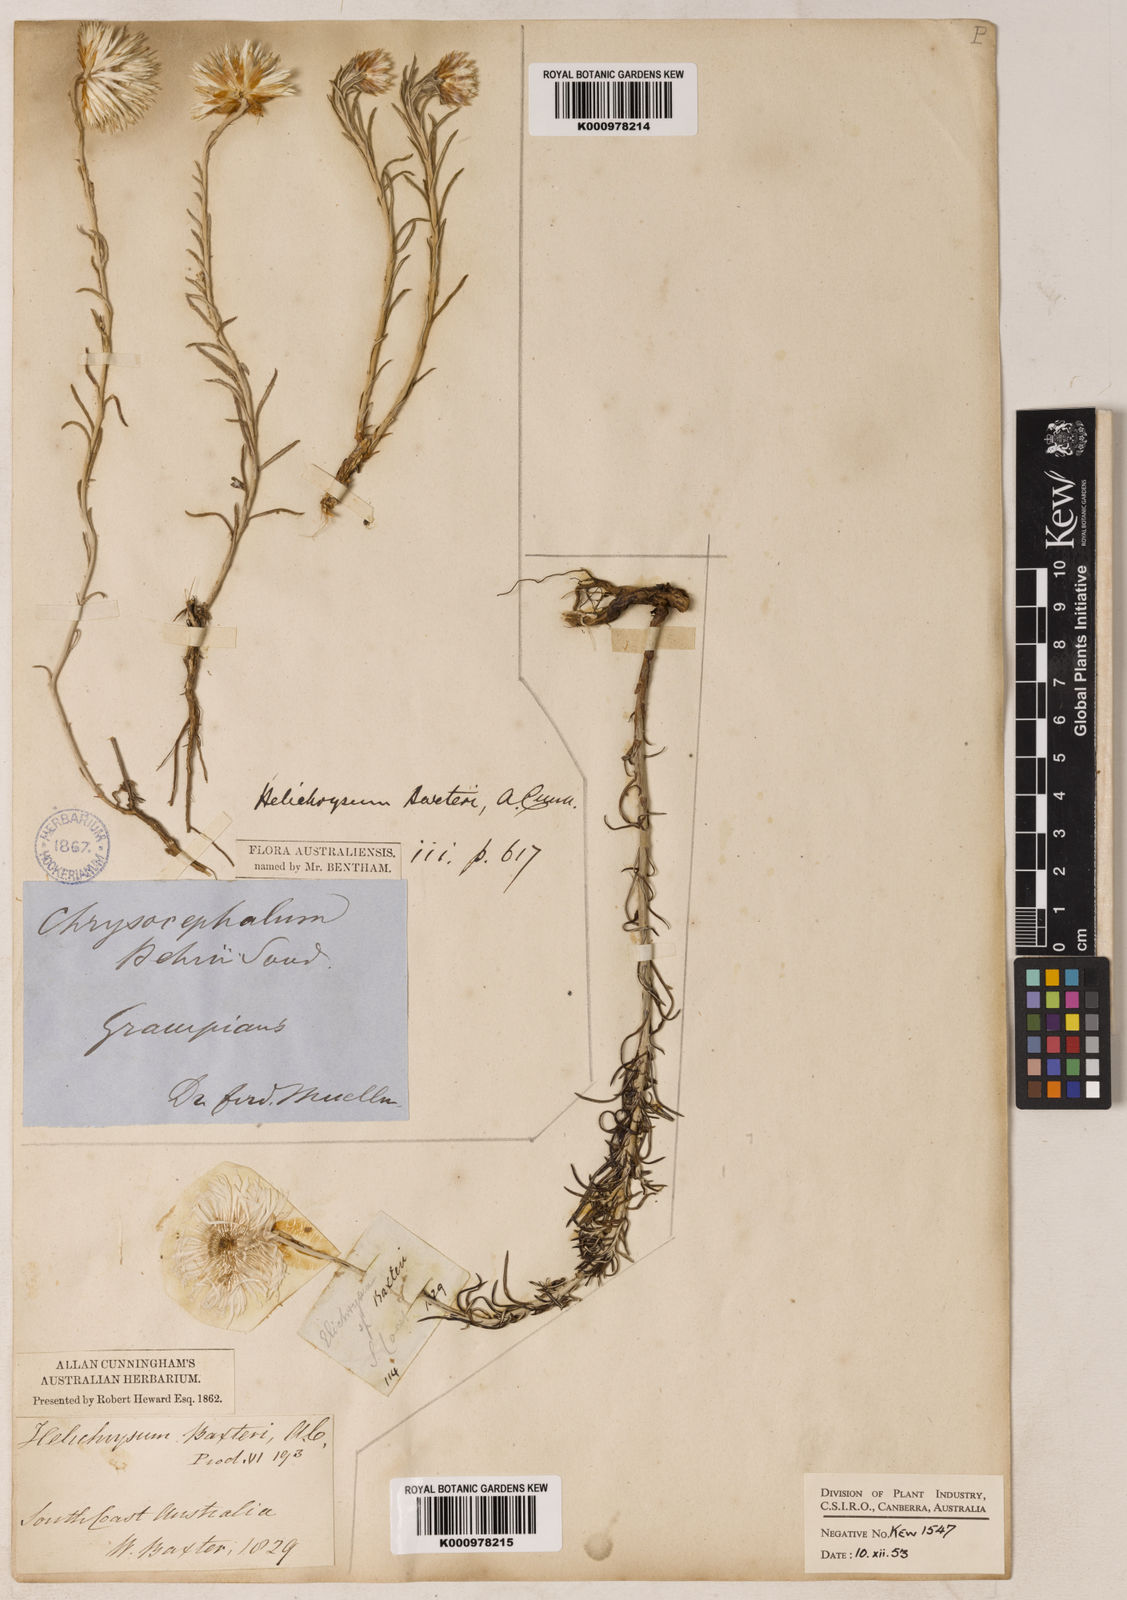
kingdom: Plantae
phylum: Tracheophyta
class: Magnoliopsida
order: Asterales
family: Asteraceae
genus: Chrysocephalum
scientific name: Chrysocephalum baxteri
